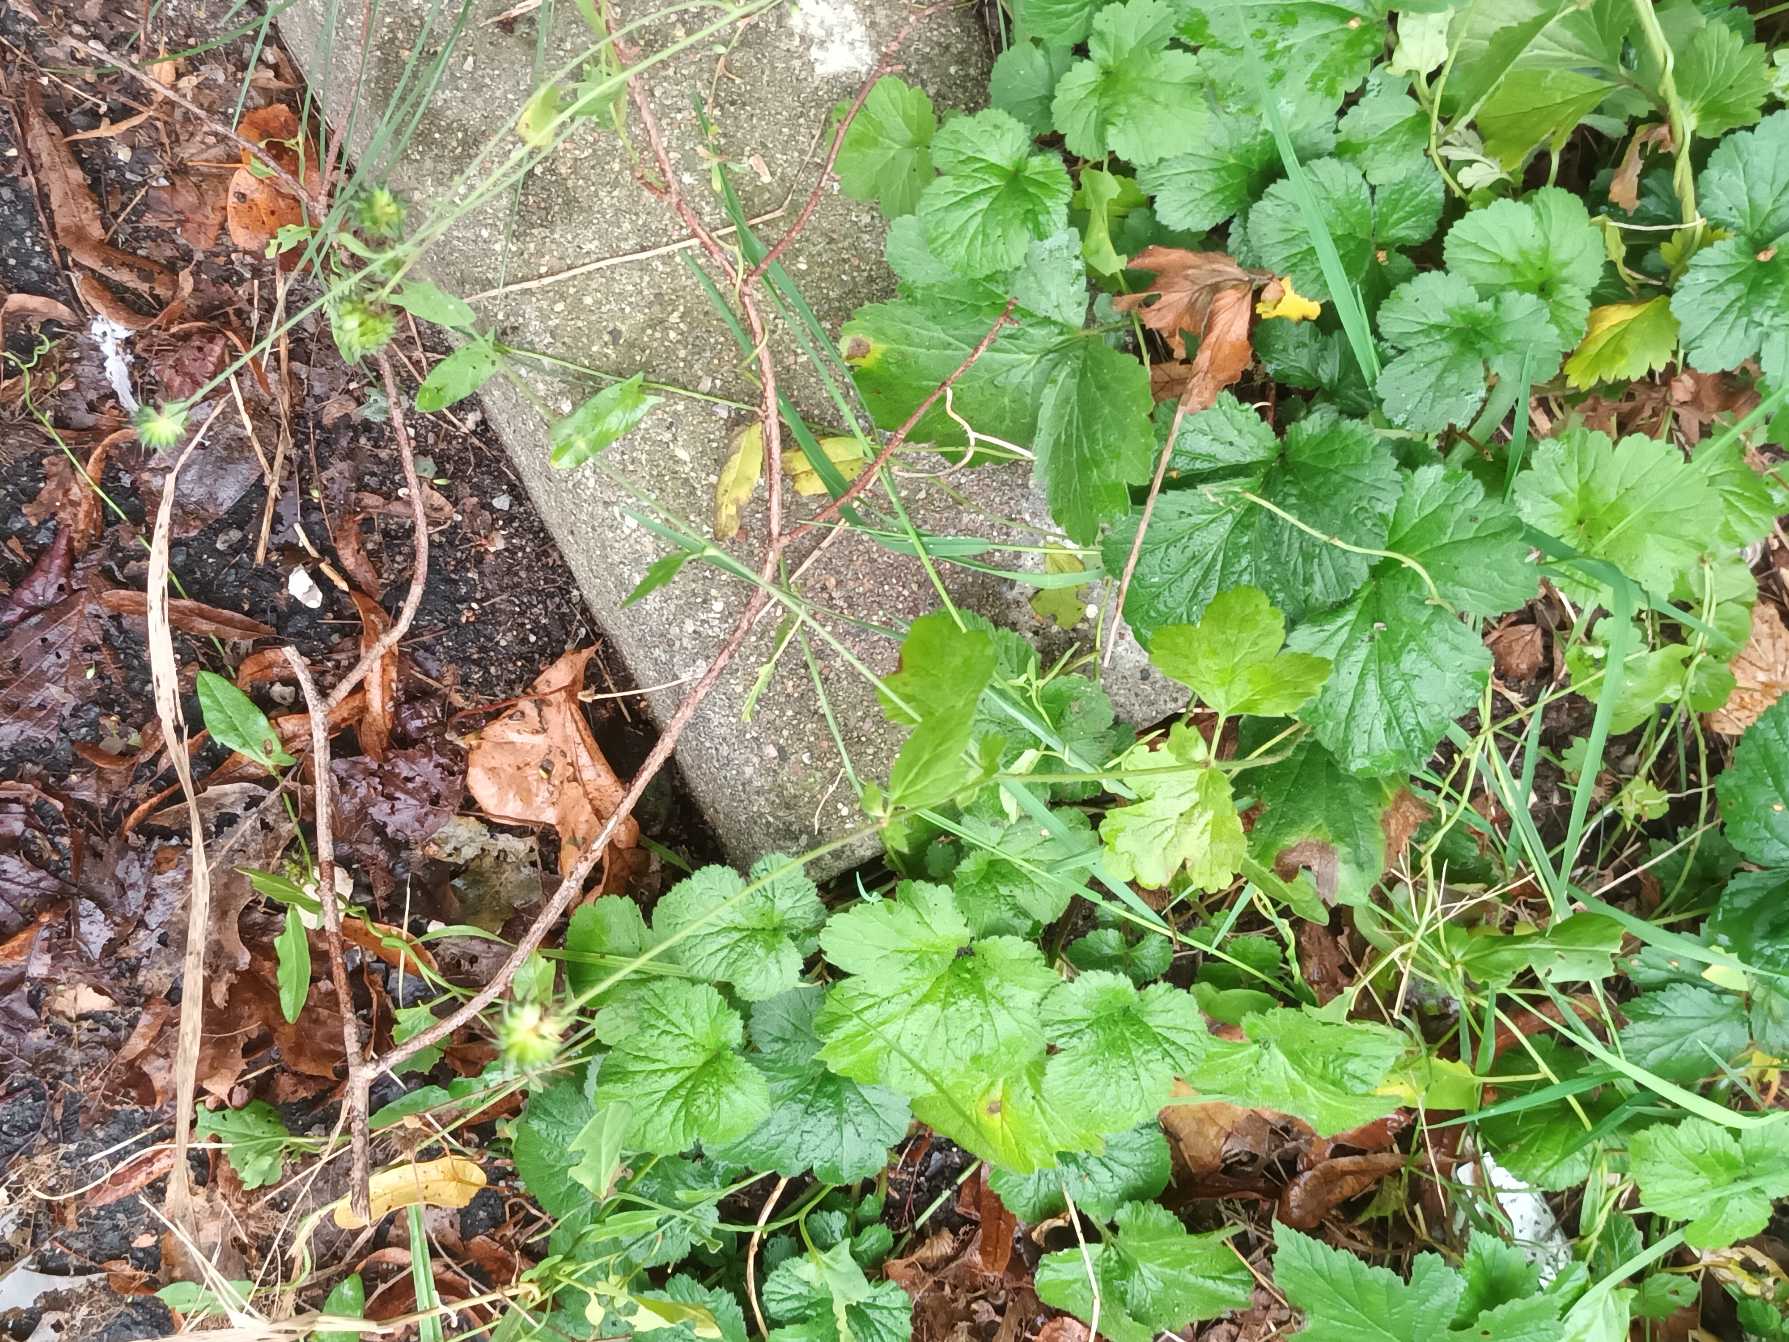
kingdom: Plantae
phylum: Tracheophyta
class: Magnoliopsida
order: Rosales
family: Rosaceae
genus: Geum
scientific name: Geum urbanum
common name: Feber-nellikerod
